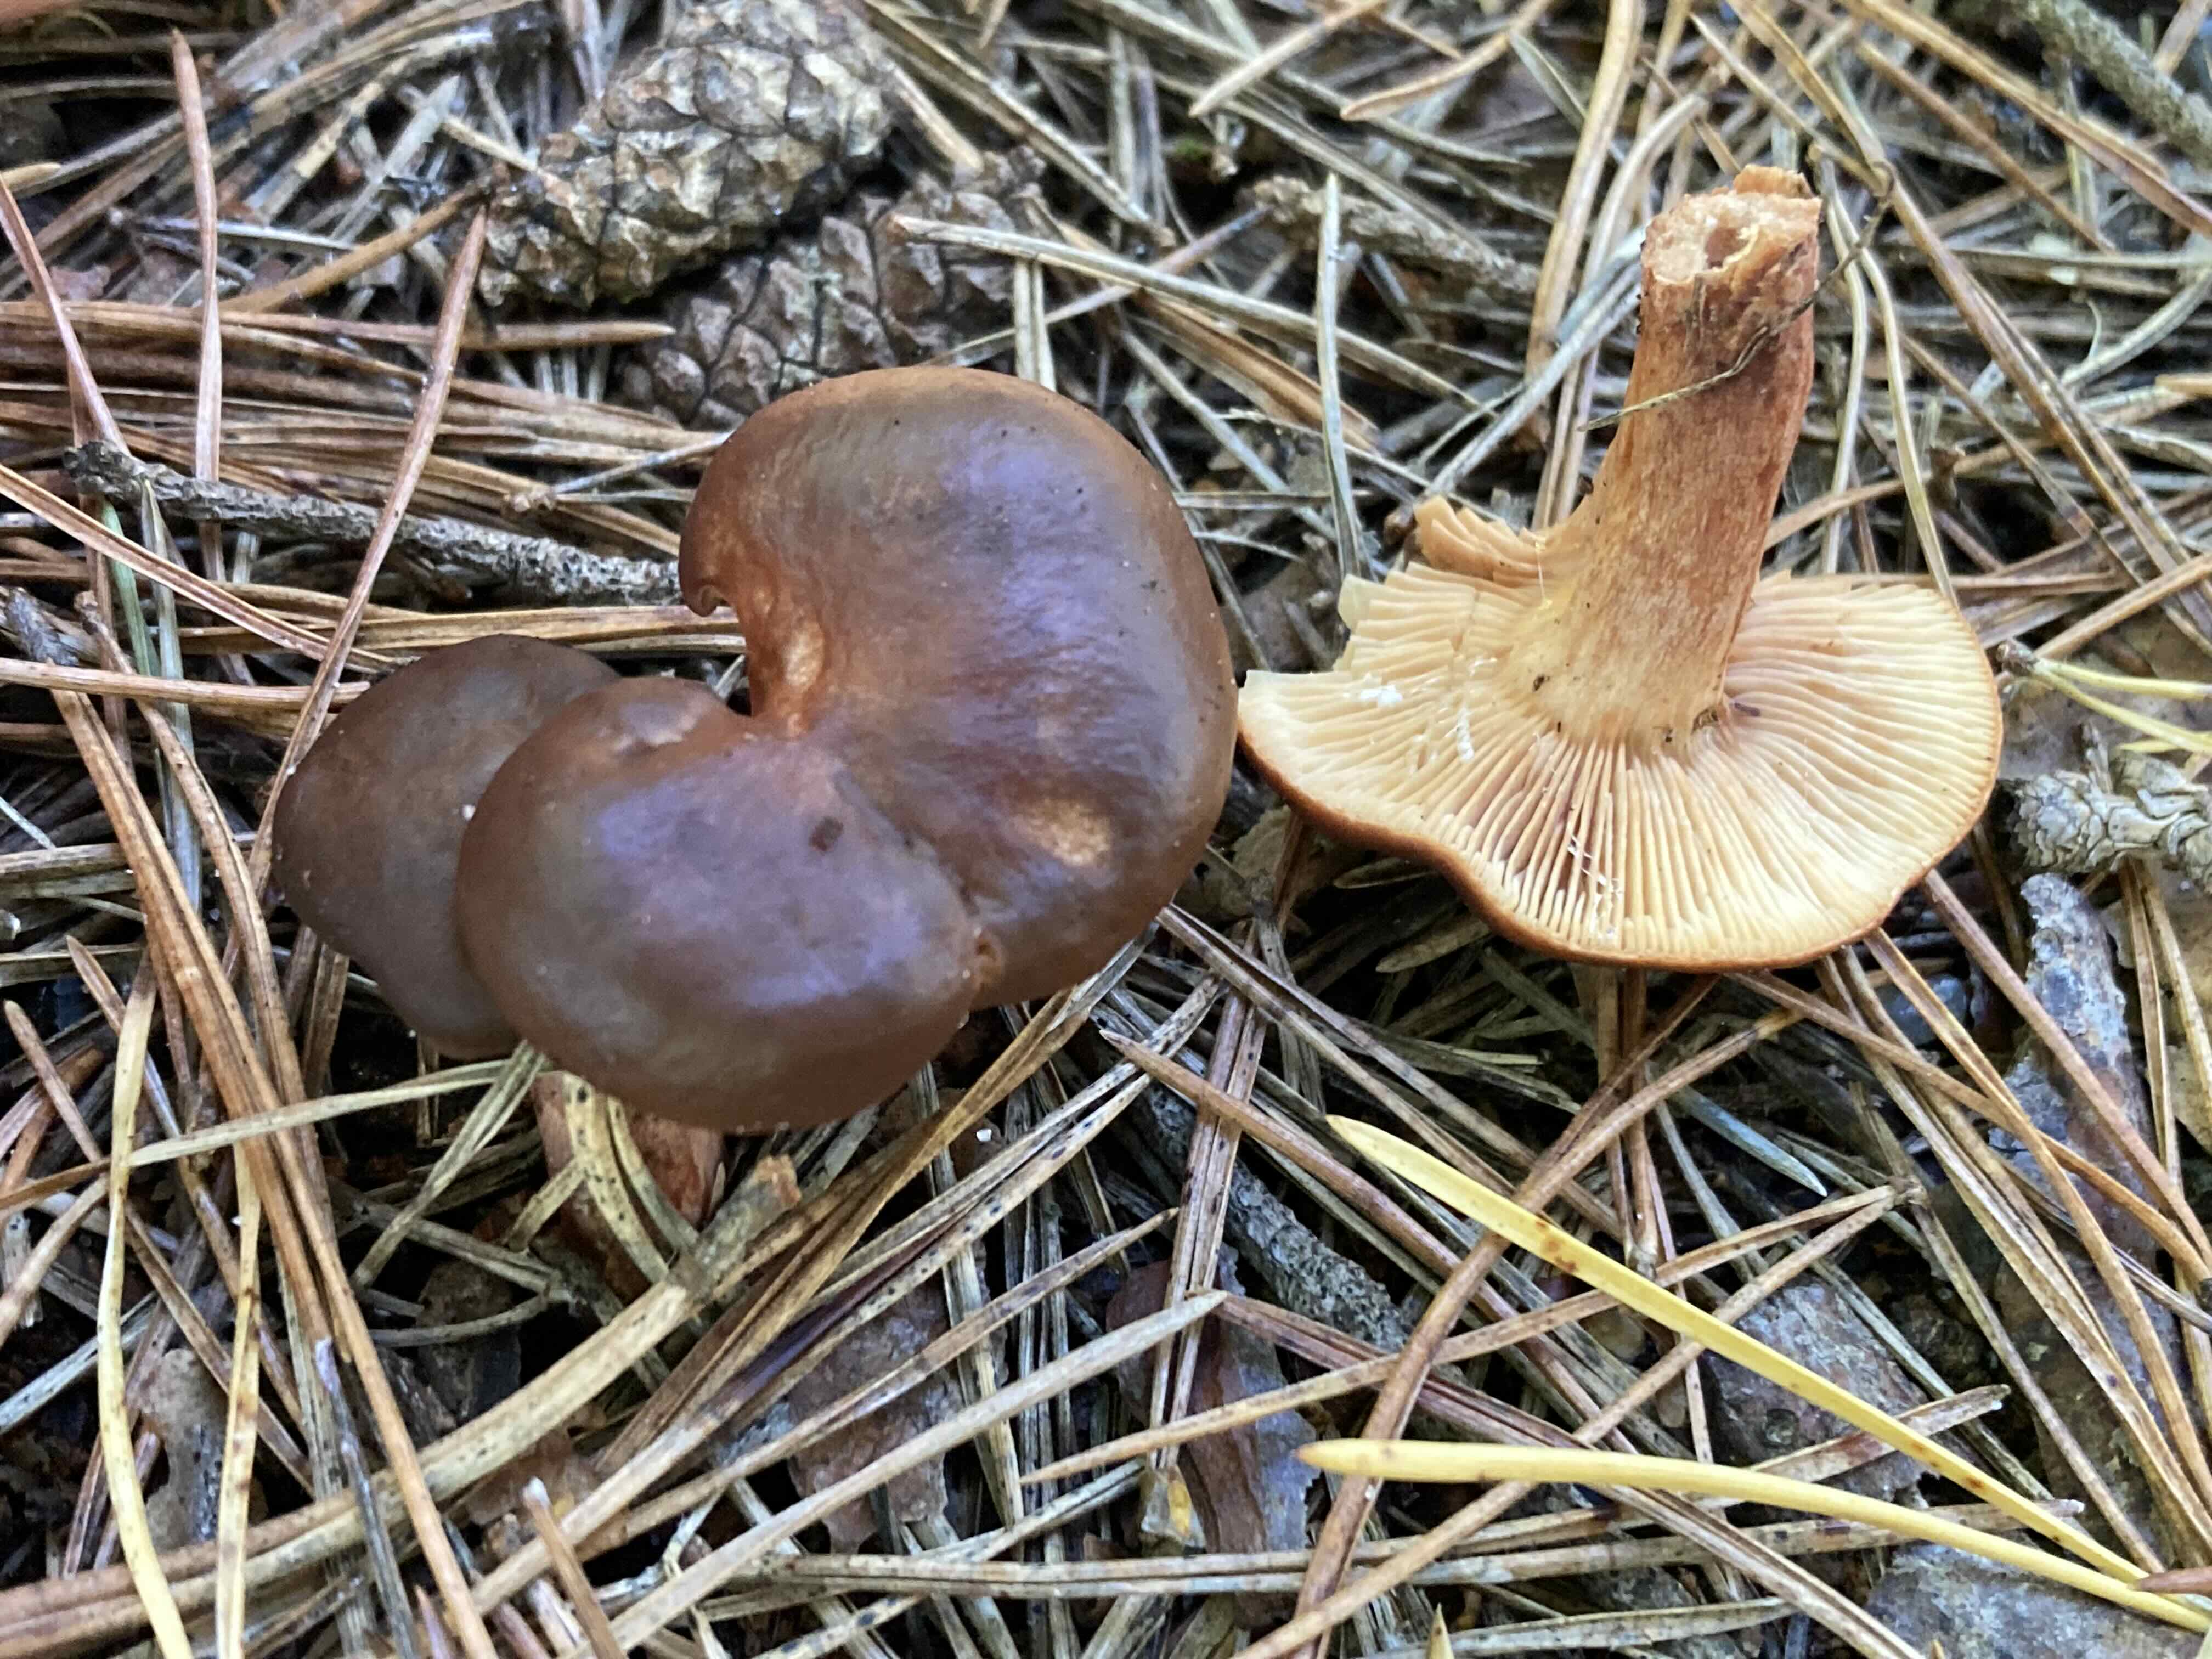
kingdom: Fungi
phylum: Basidiomycota
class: Agaricomycetes
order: Russulales
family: Russulaceae
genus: Lactarius
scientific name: Lactarius hepaticus
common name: leverbrun mælkehat
